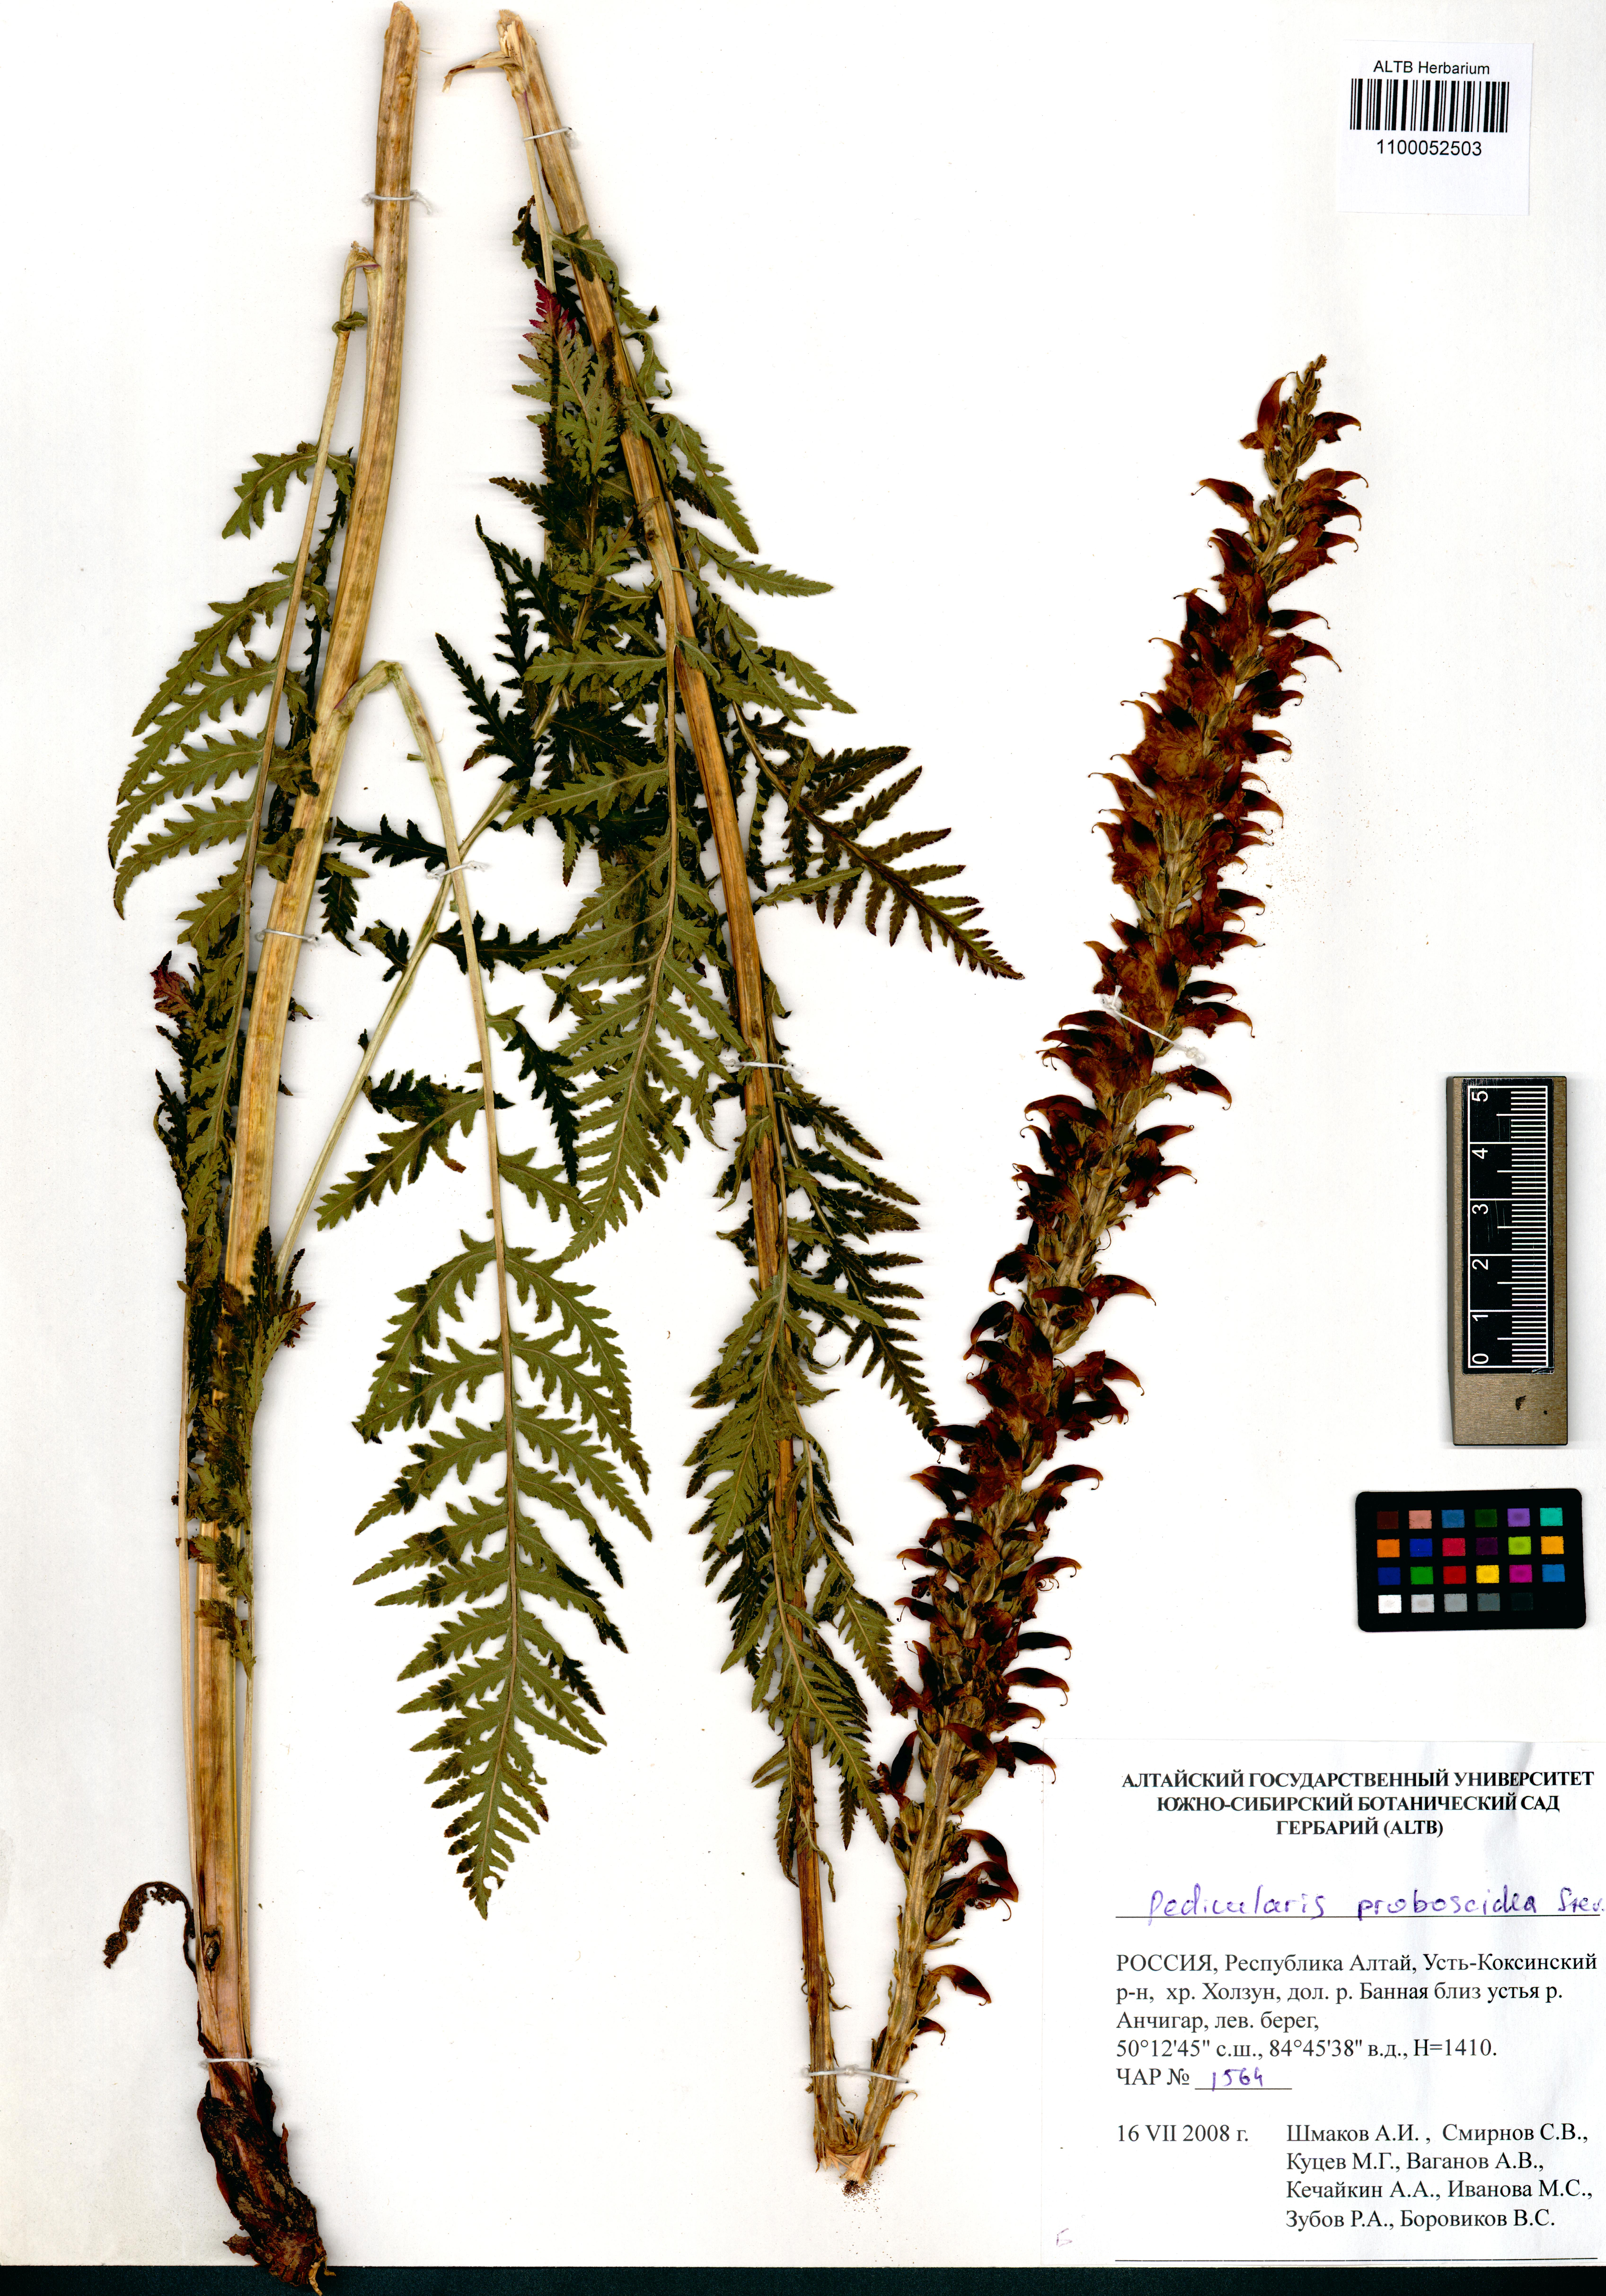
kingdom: Plantae
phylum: Tracheophyta
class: Magnoliopsida
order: Lamiales
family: Orobanchaceae
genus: Pedicularis
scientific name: Pedicularis proboscidea
